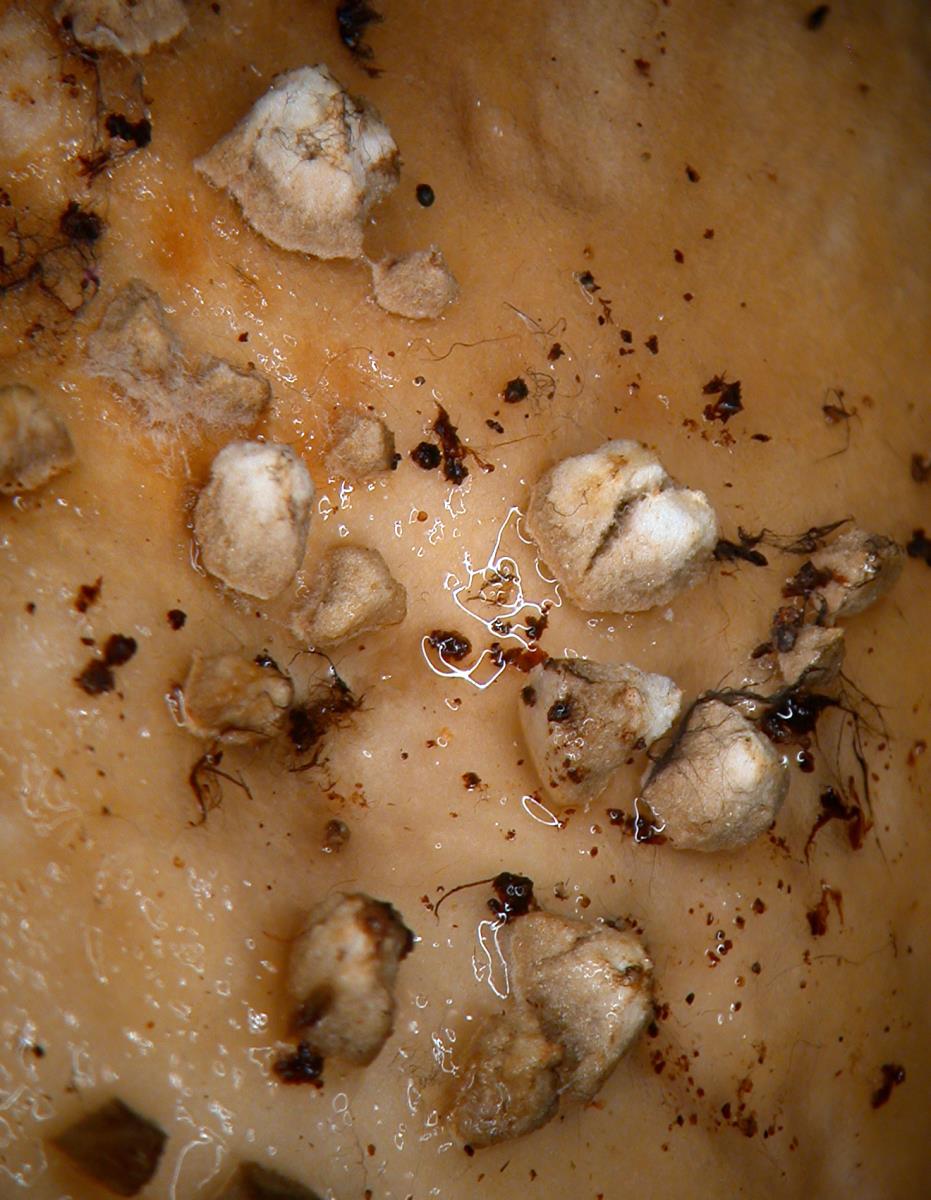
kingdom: Fungi
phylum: Basidiomycota
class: Agaricomycetes
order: Agaricales
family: Amanitaceae
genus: Amanita
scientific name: Amanita australis
